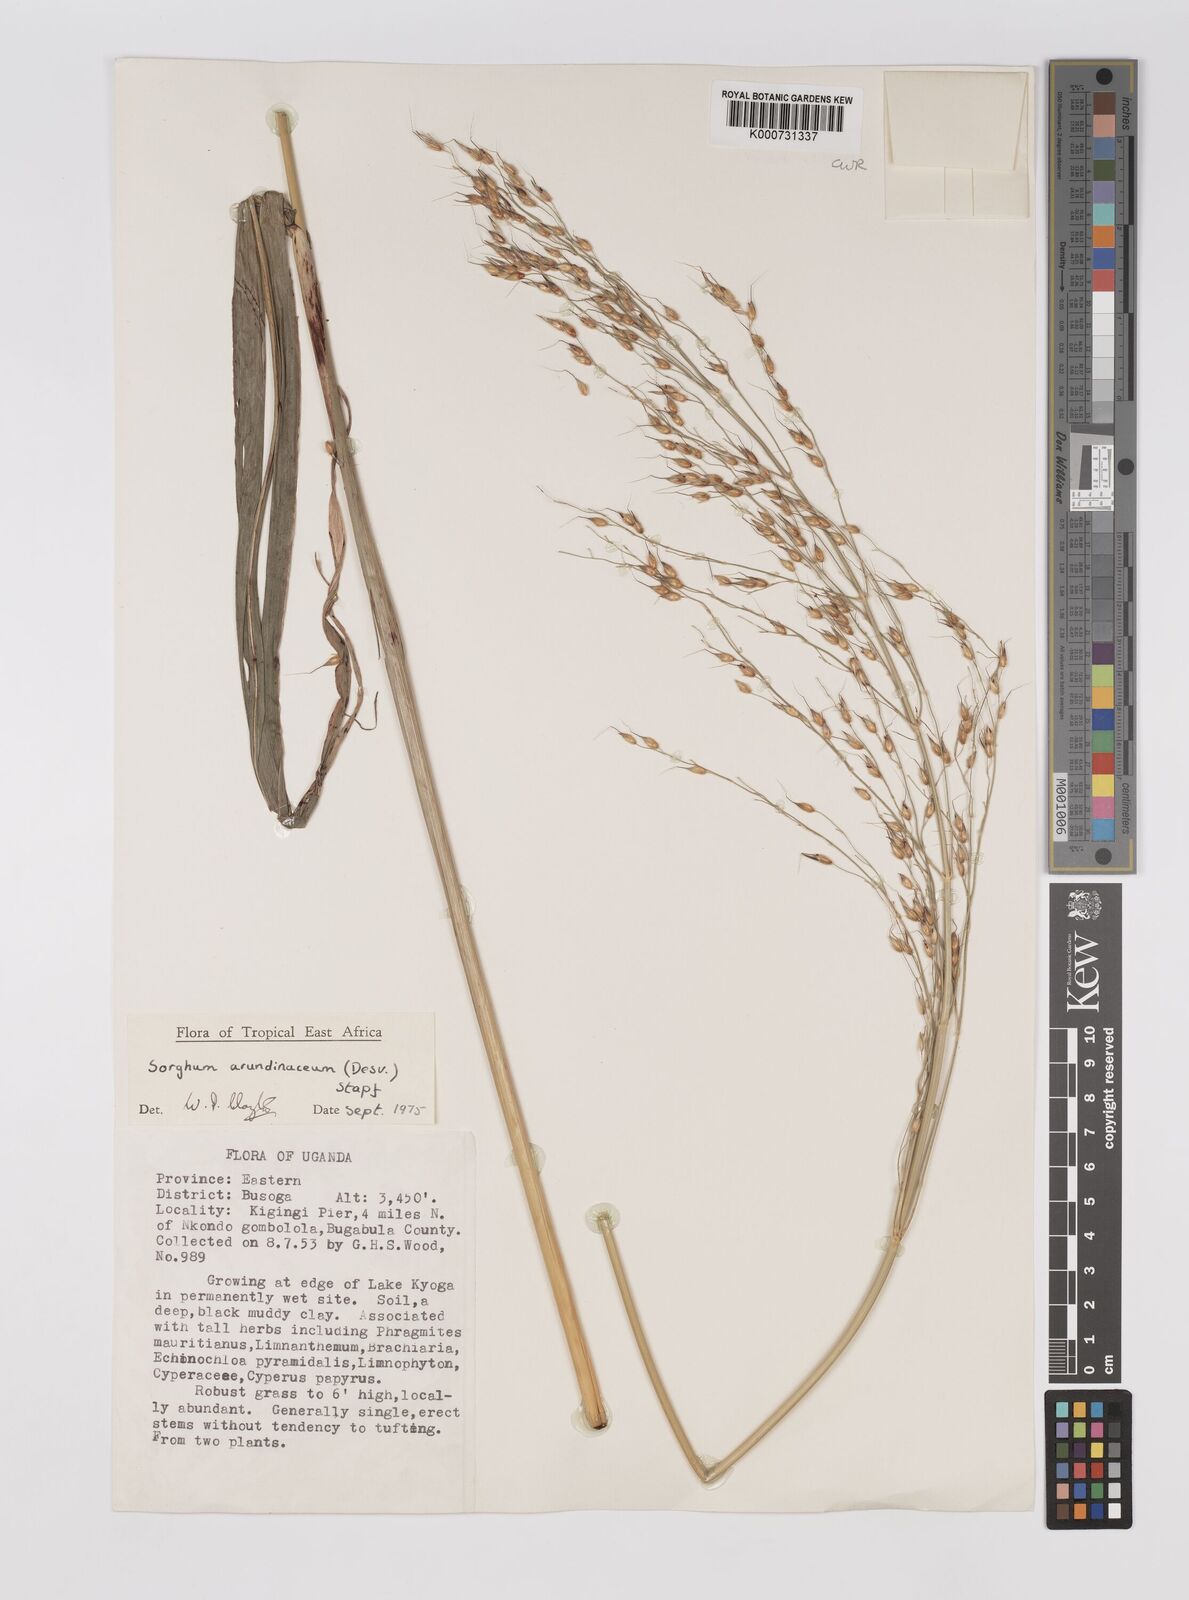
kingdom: Plantae
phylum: Tracheophyta
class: Liliopsida
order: Poales
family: Poaceae
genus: Sorghum
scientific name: Sorghum arundinaceum
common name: Sorghum
